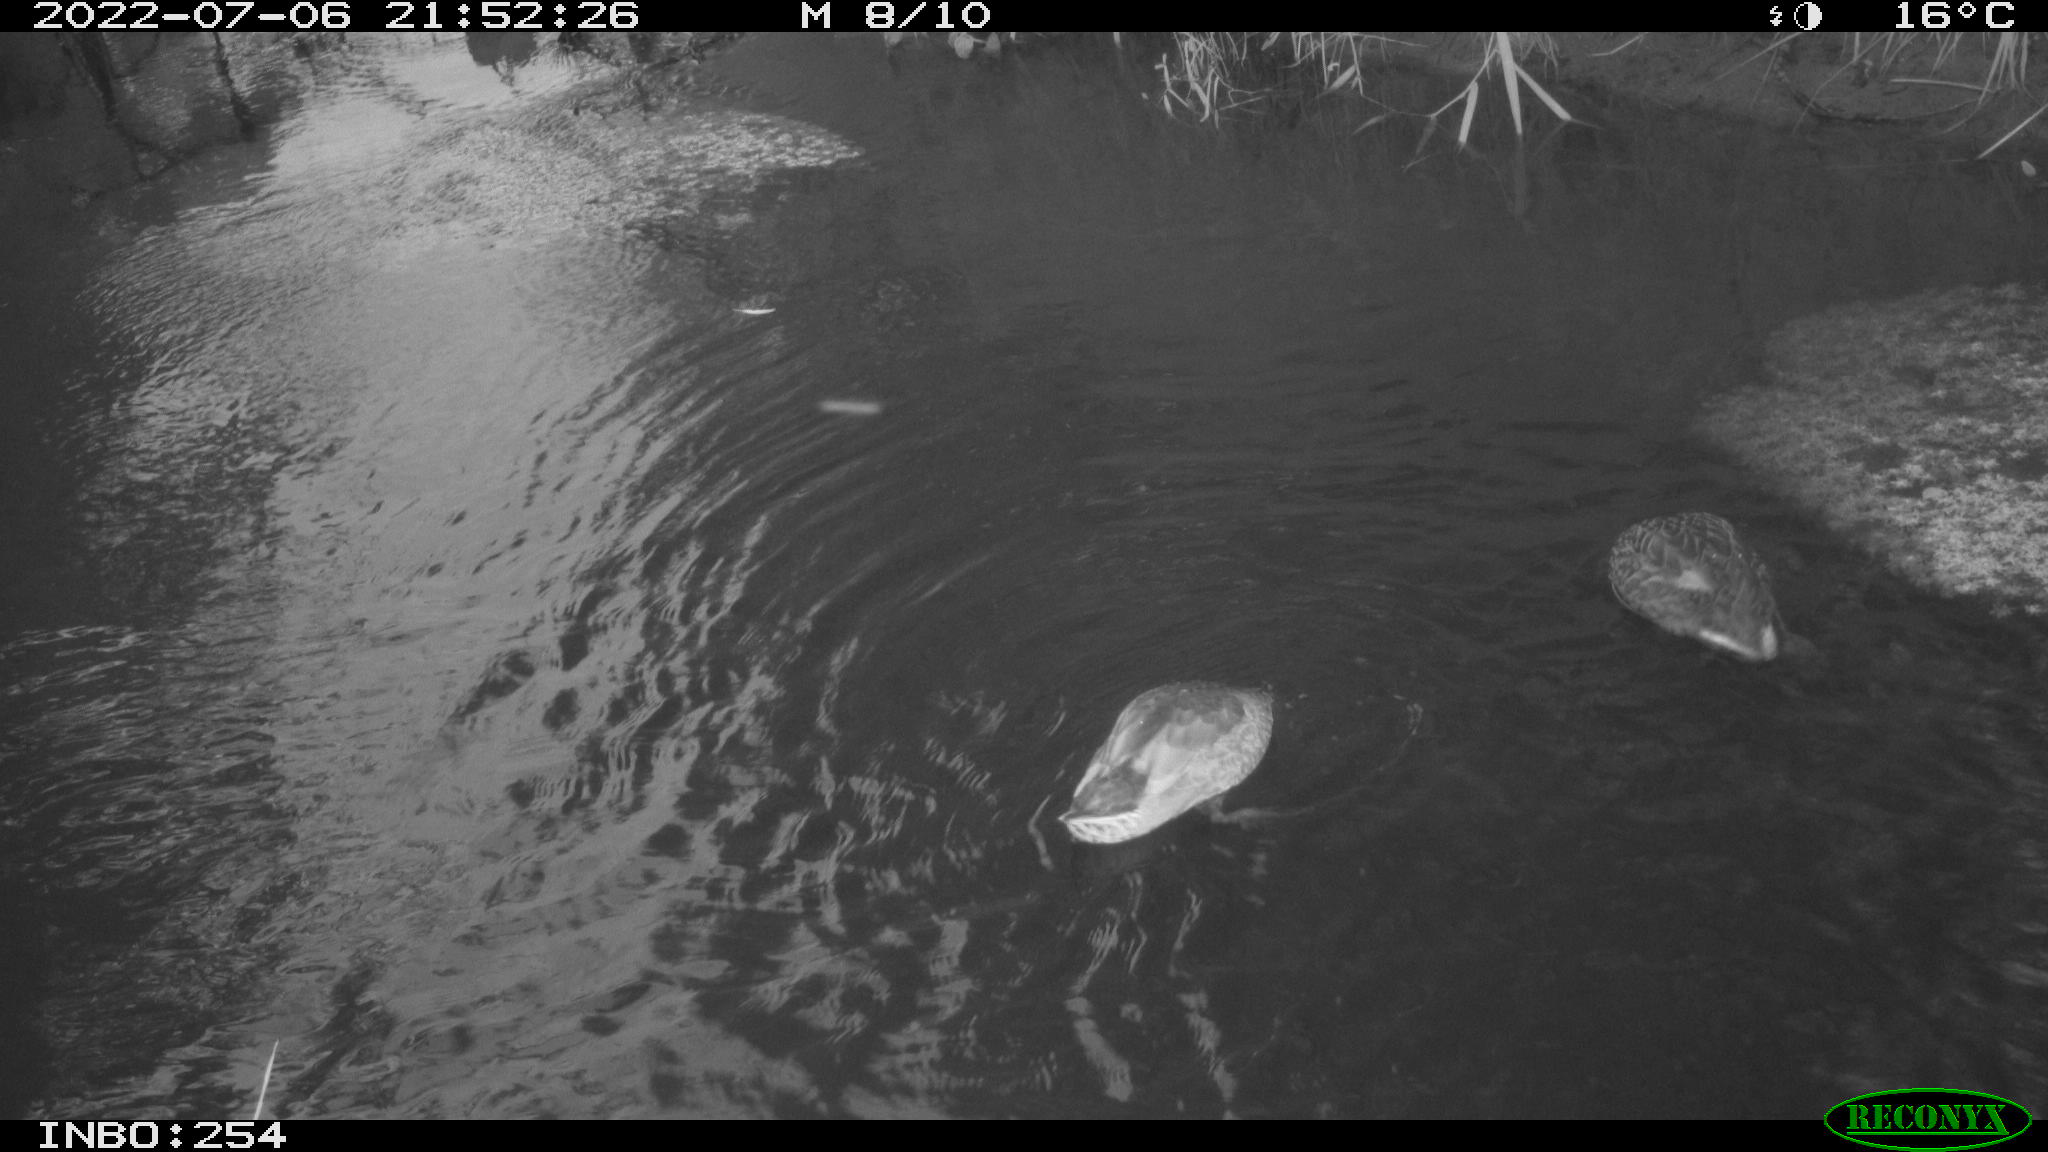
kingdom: Animalia
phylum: Chordata
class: Aves
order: Anseriformes
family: Anatidae
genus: Anas
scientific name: Anas platyrhynchos
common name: Mallard
